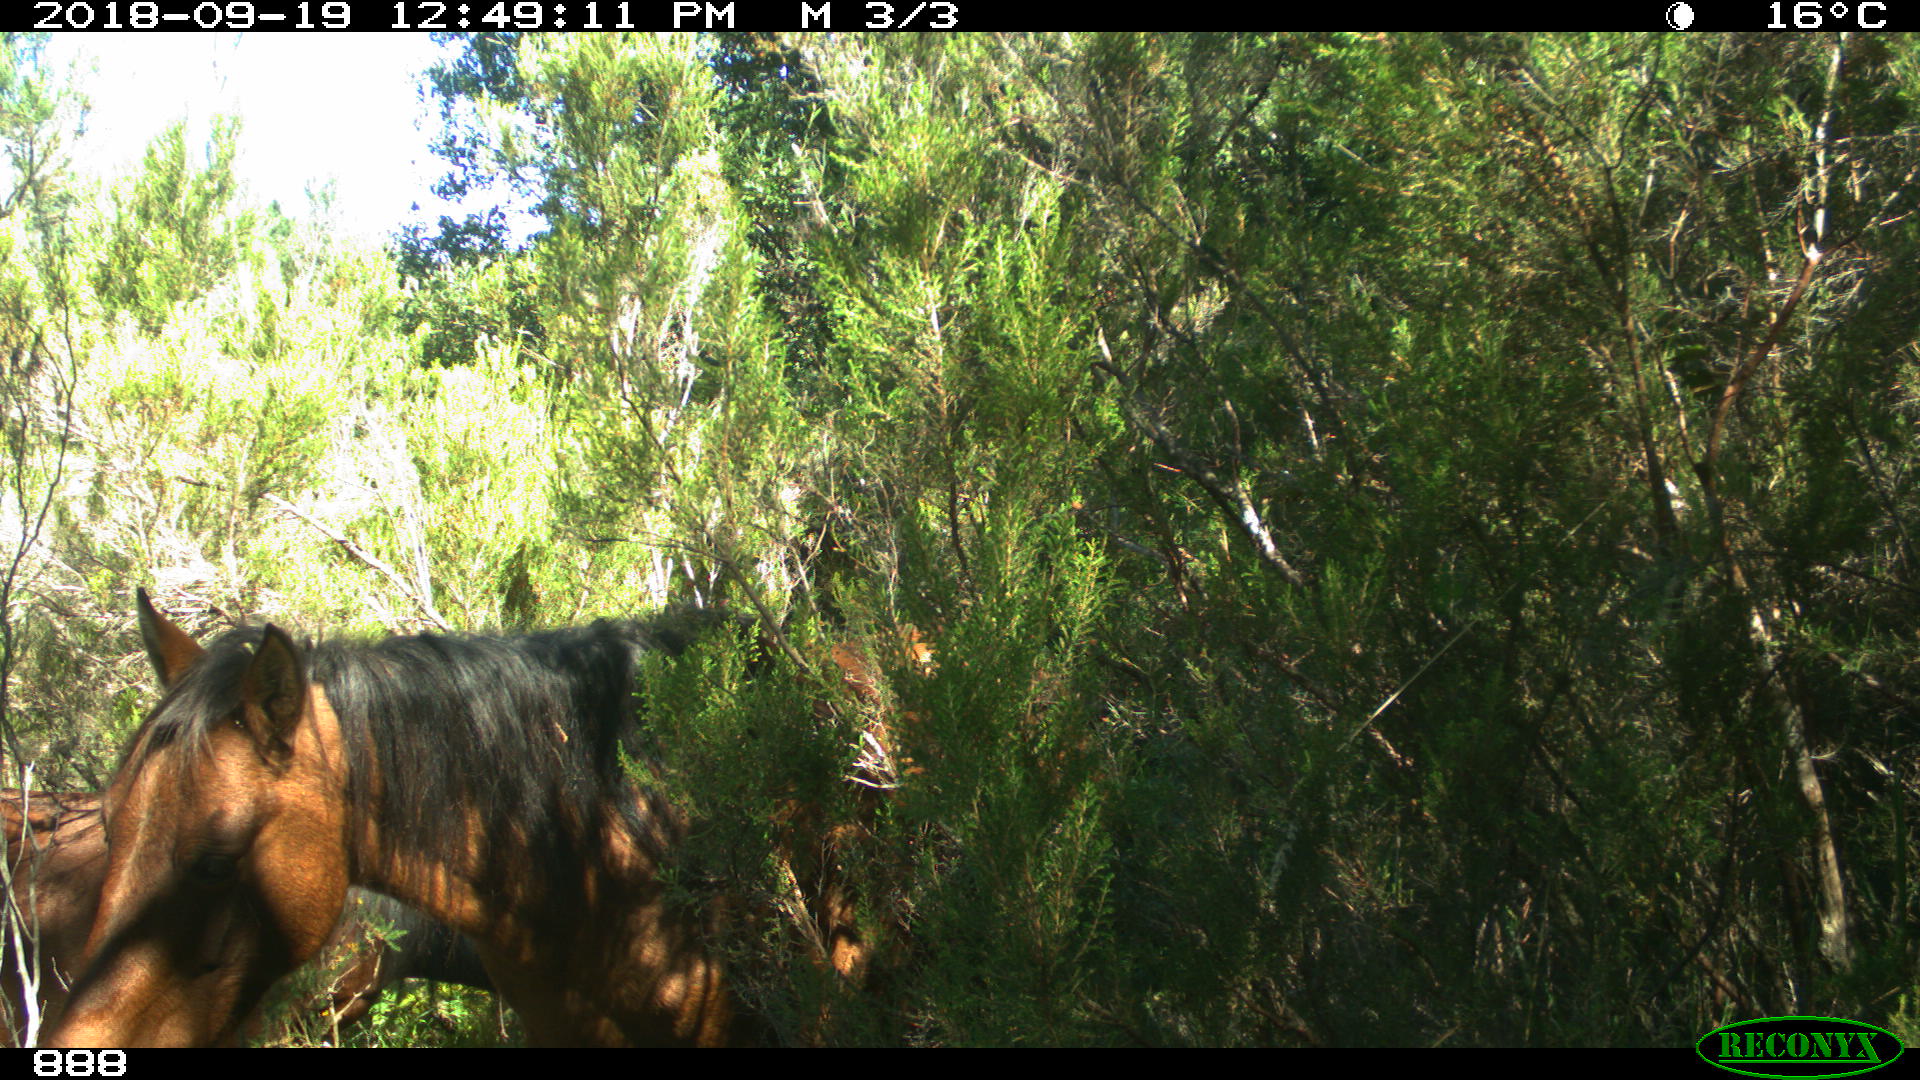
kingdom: Animalia
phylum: Chordata
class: Mammalia
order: Perissodactyla
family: Equidae
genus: Equus
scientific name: Equus caballus
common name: Horse
